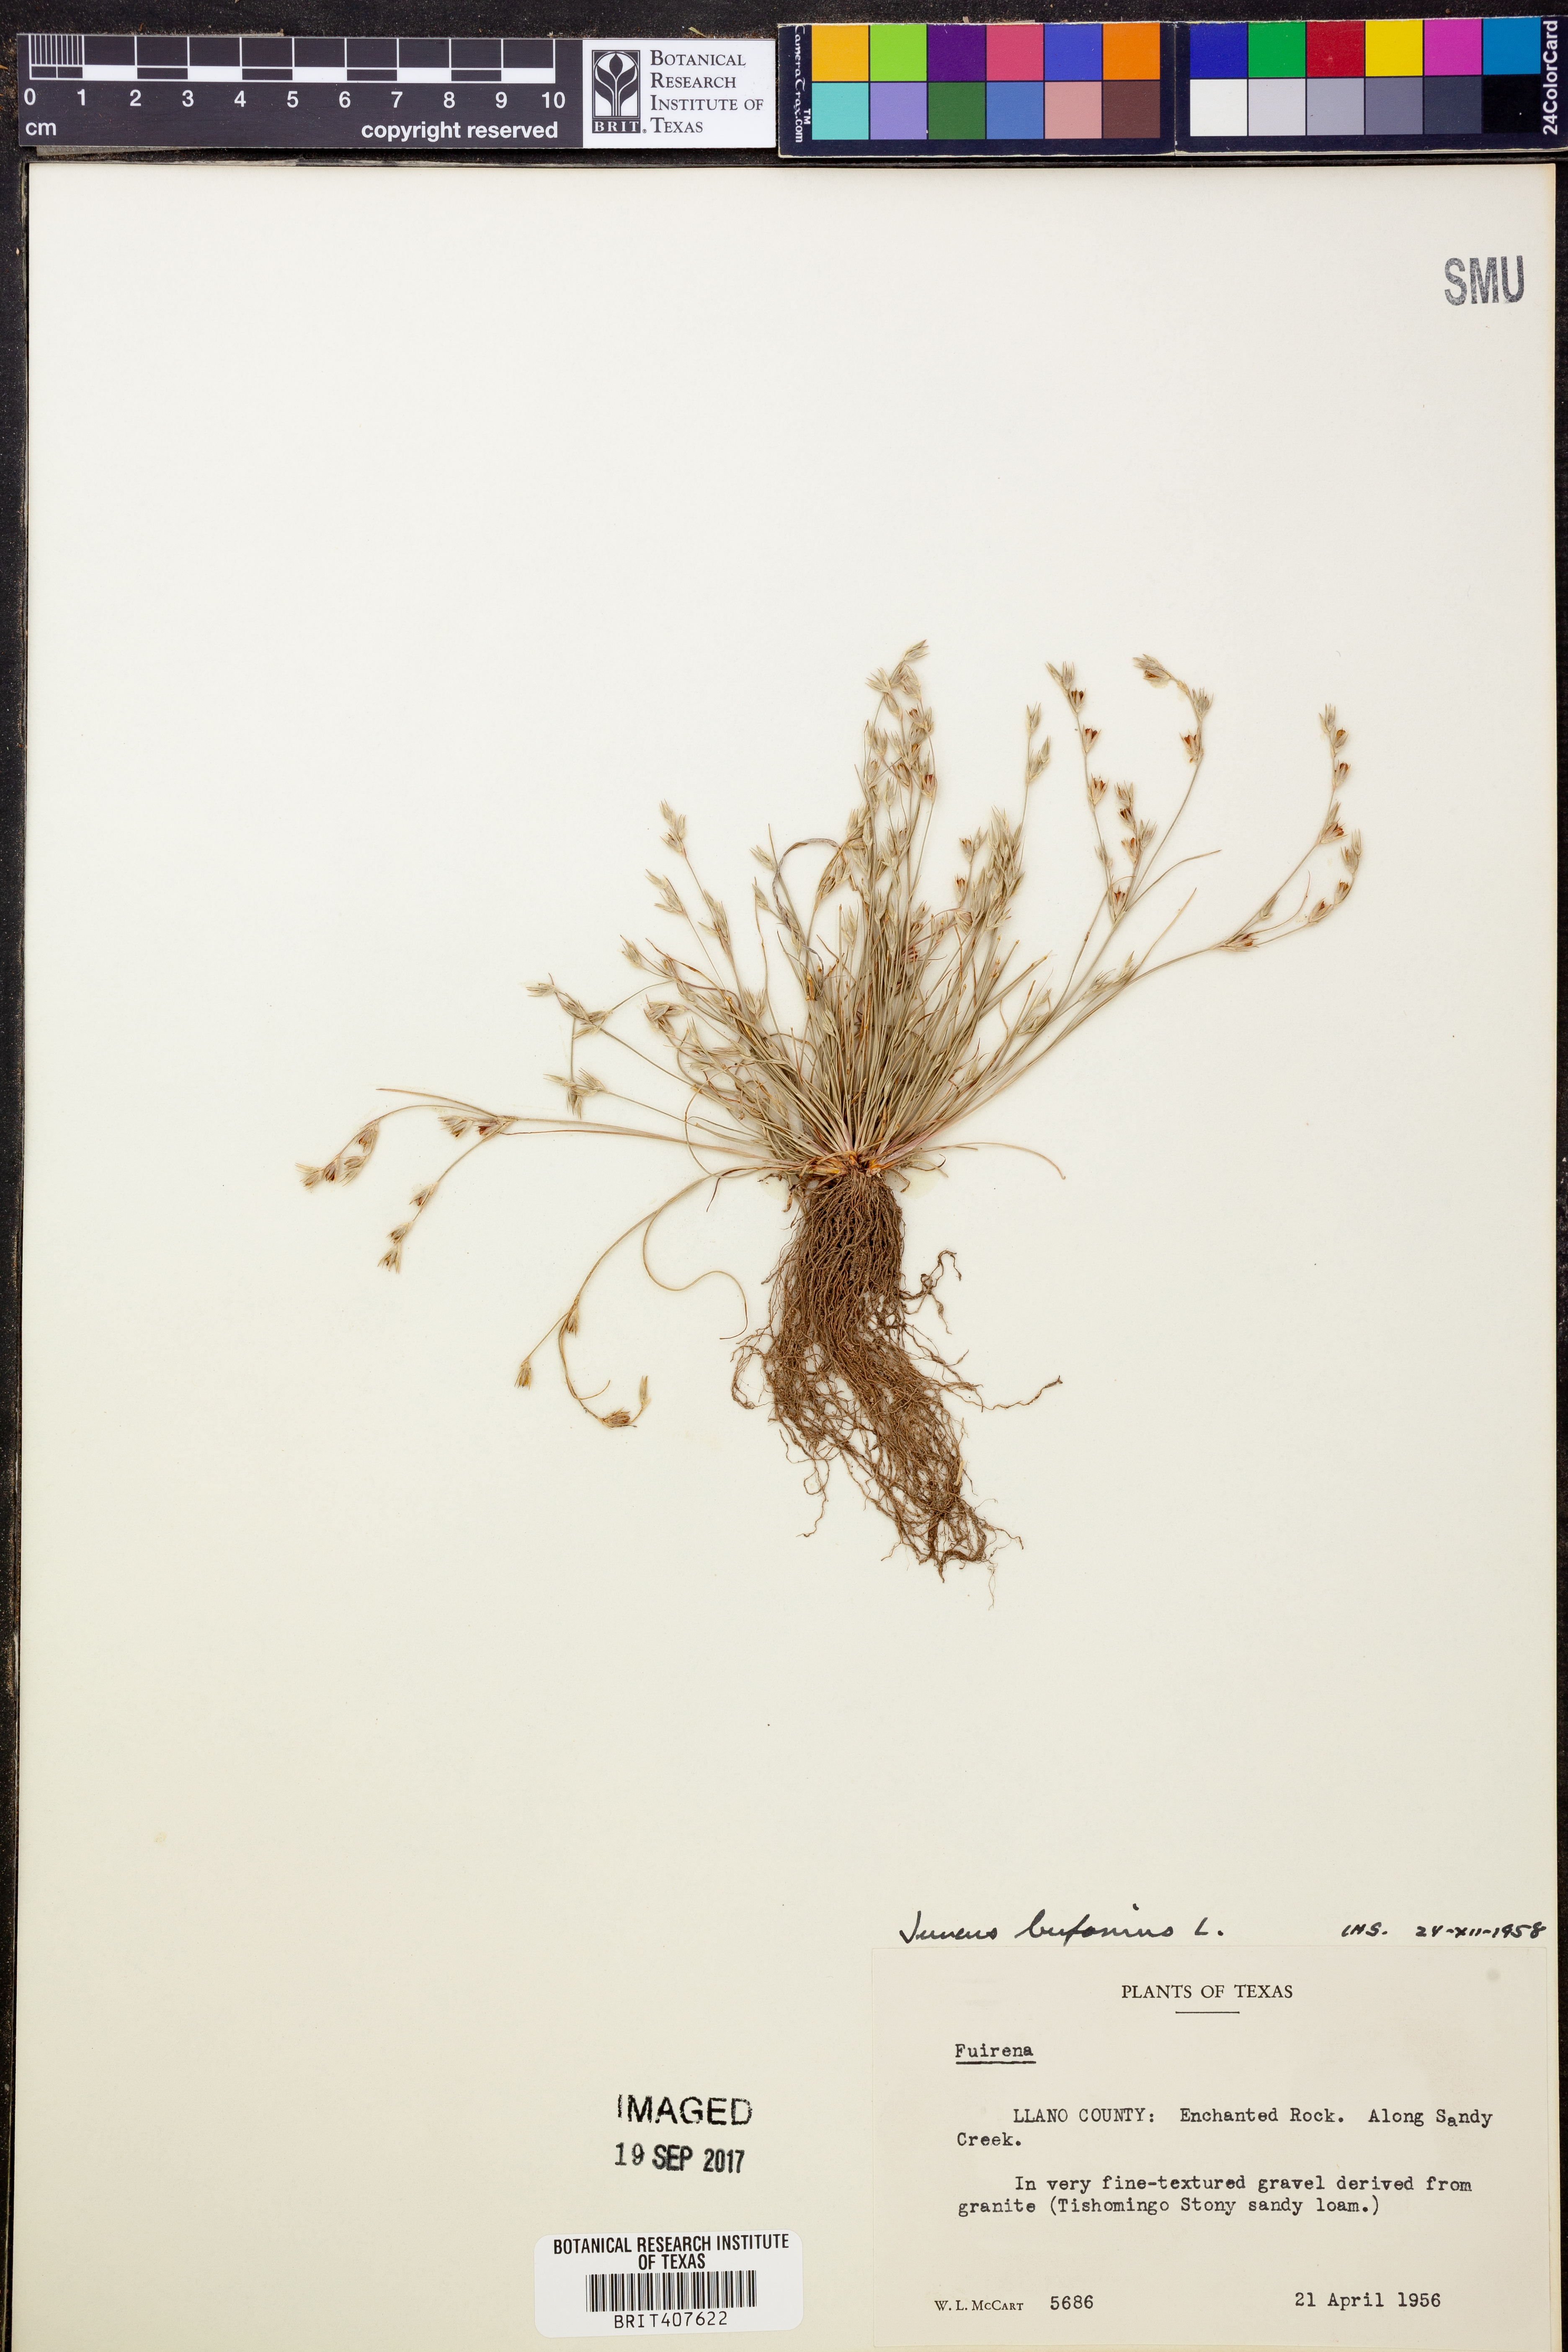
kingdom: Plantae
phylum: Tracheophyta
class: Liliopsida
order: Poales
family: Juncaceae
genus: Juncus
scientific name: Juncus bufonius
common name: Toad rush
